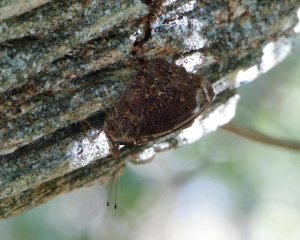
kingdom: Animalia
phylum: Arthropoda
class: Insecta
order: Lepidoptera
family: Nymphalidae
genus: Myscelia
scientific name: Myscelia ethusa
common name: Mexican Bluewing
